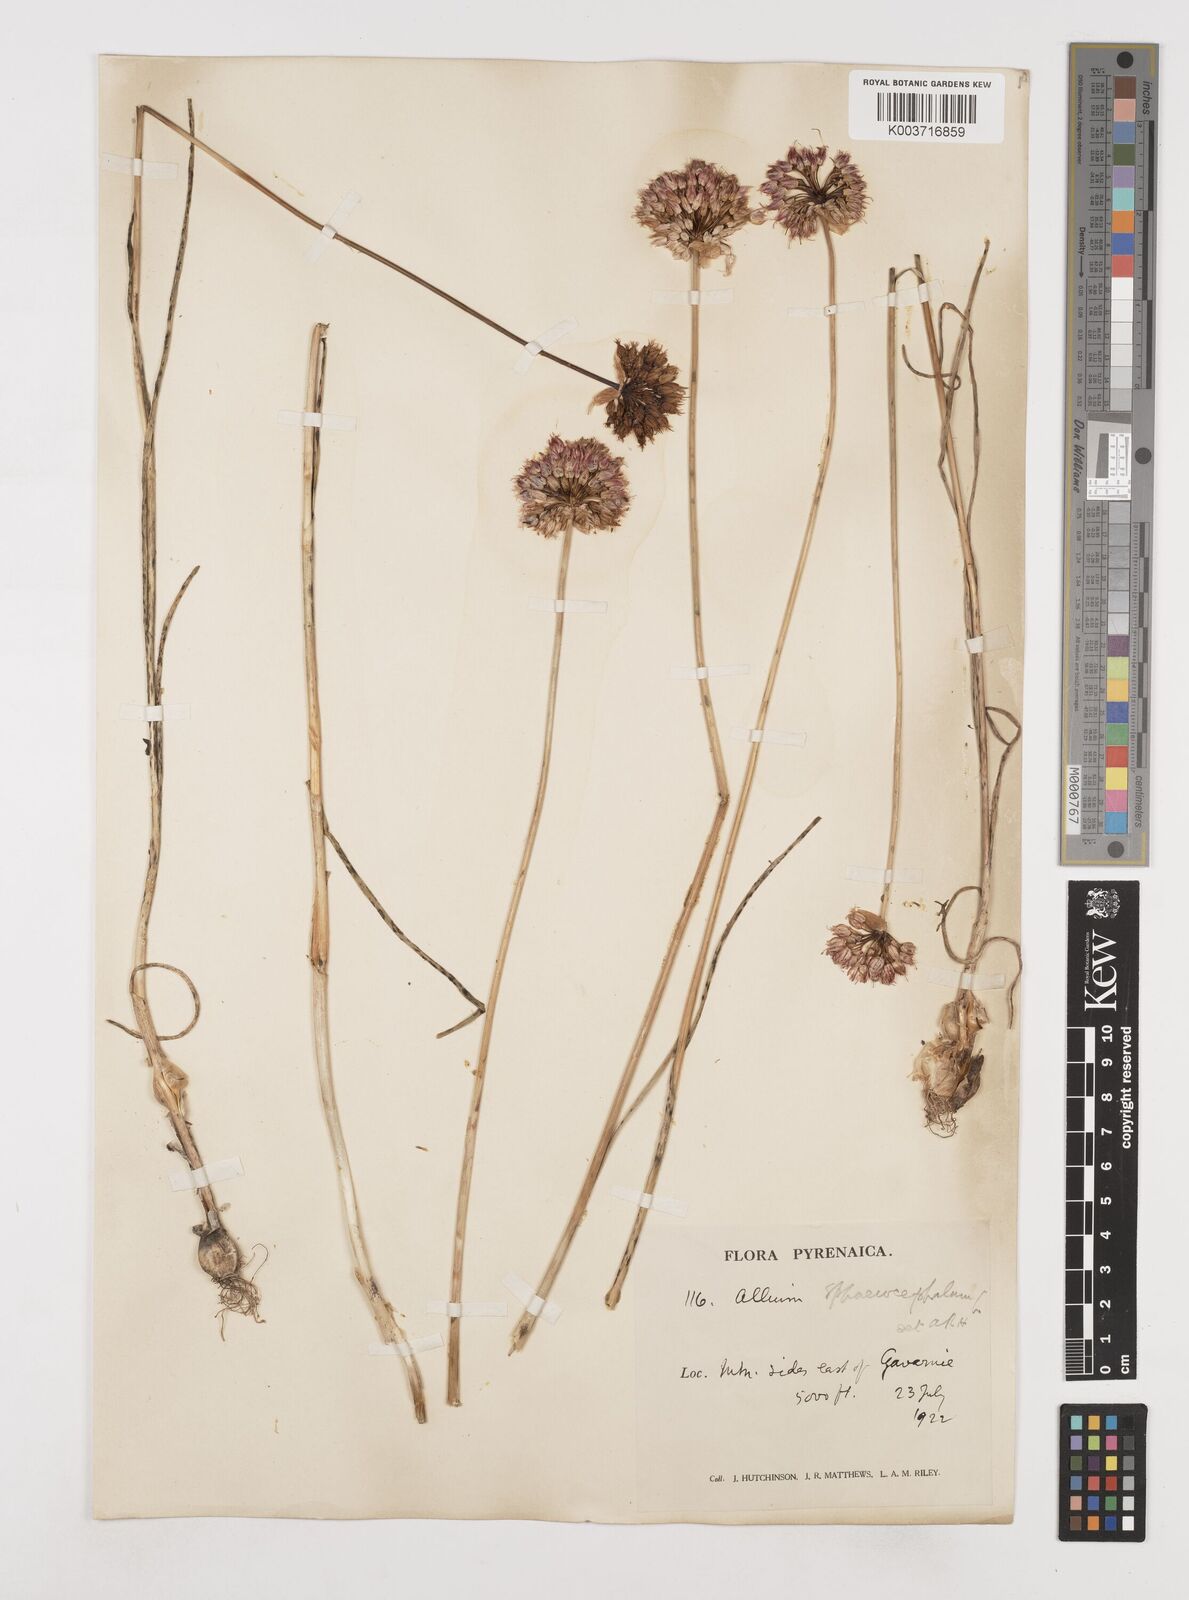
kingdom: Plantae
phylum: Tracheophyta
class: Liliopsida
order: Asparagales
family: Amaryllidaceae
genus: Allium
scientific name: Allium sphaerocephalon
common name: Round-headed leek
